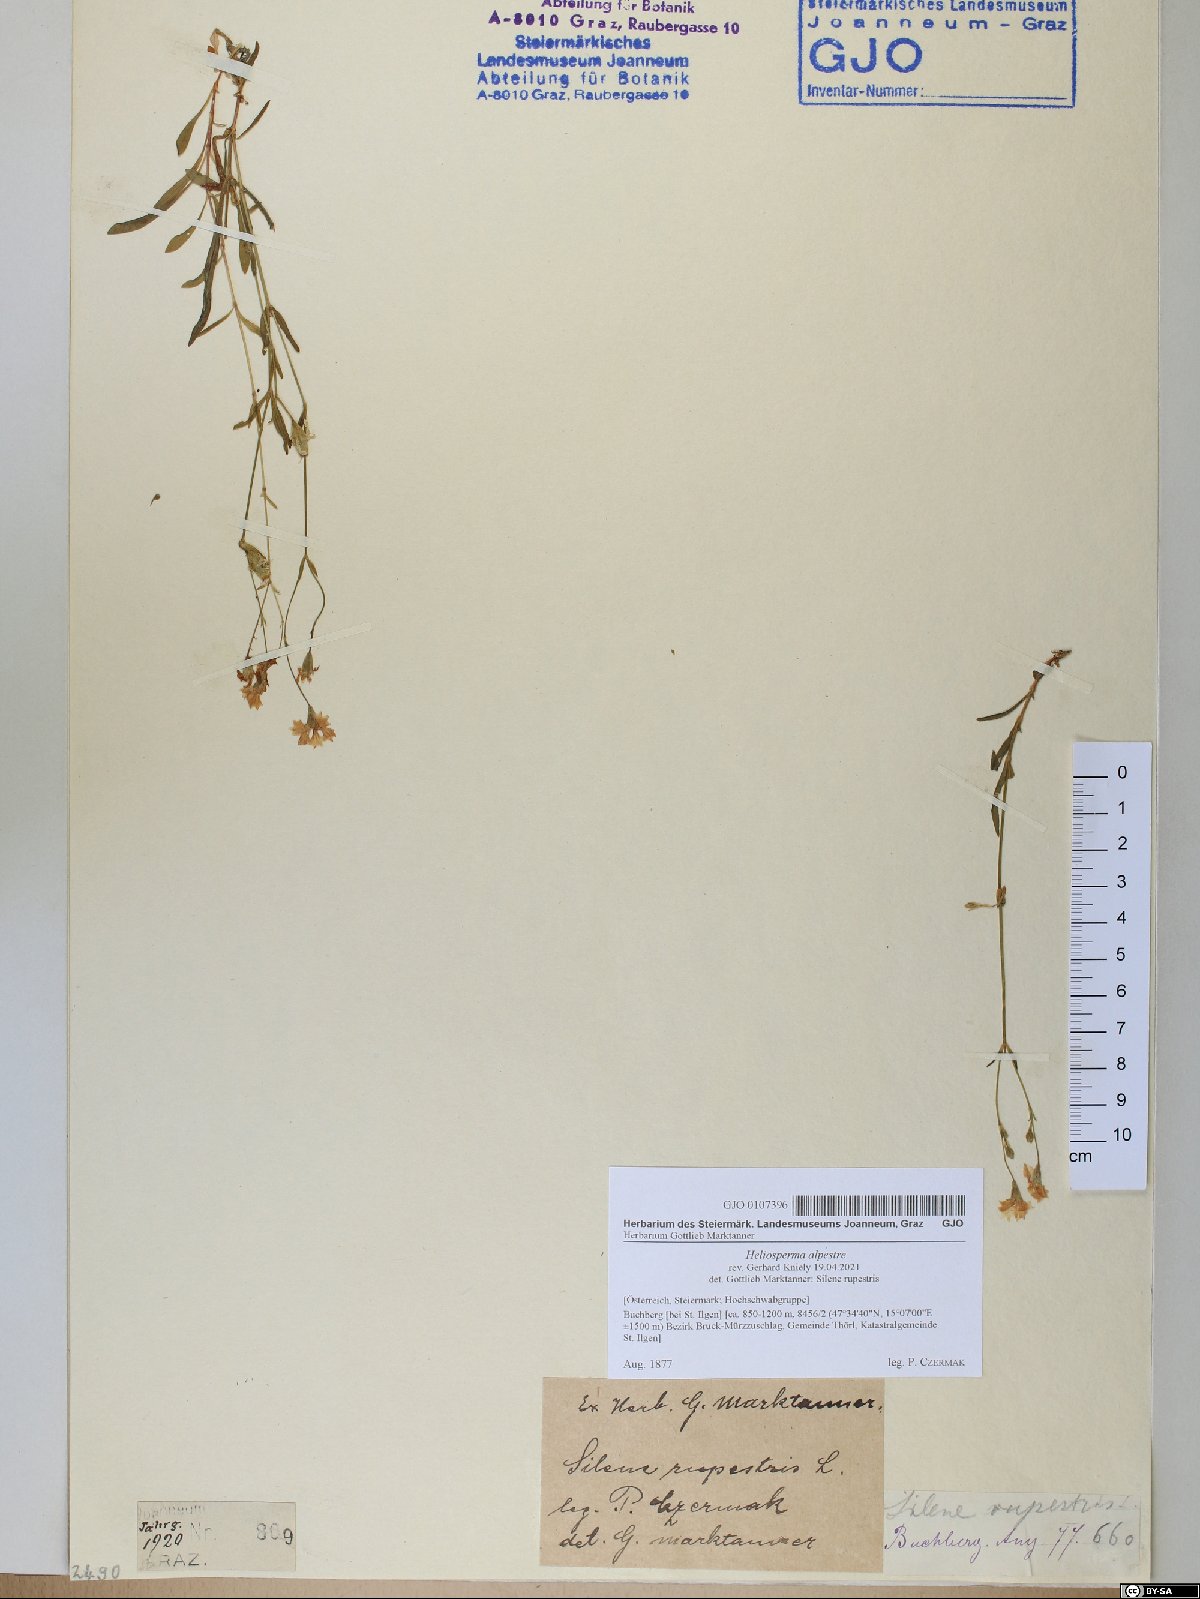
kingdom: Plantae
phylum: Tracheophyta
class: Magnoliopsida
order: Caryophyllales
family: Caryophyllaceae
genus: Heliosperma
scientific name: Heliosperma alpestre
